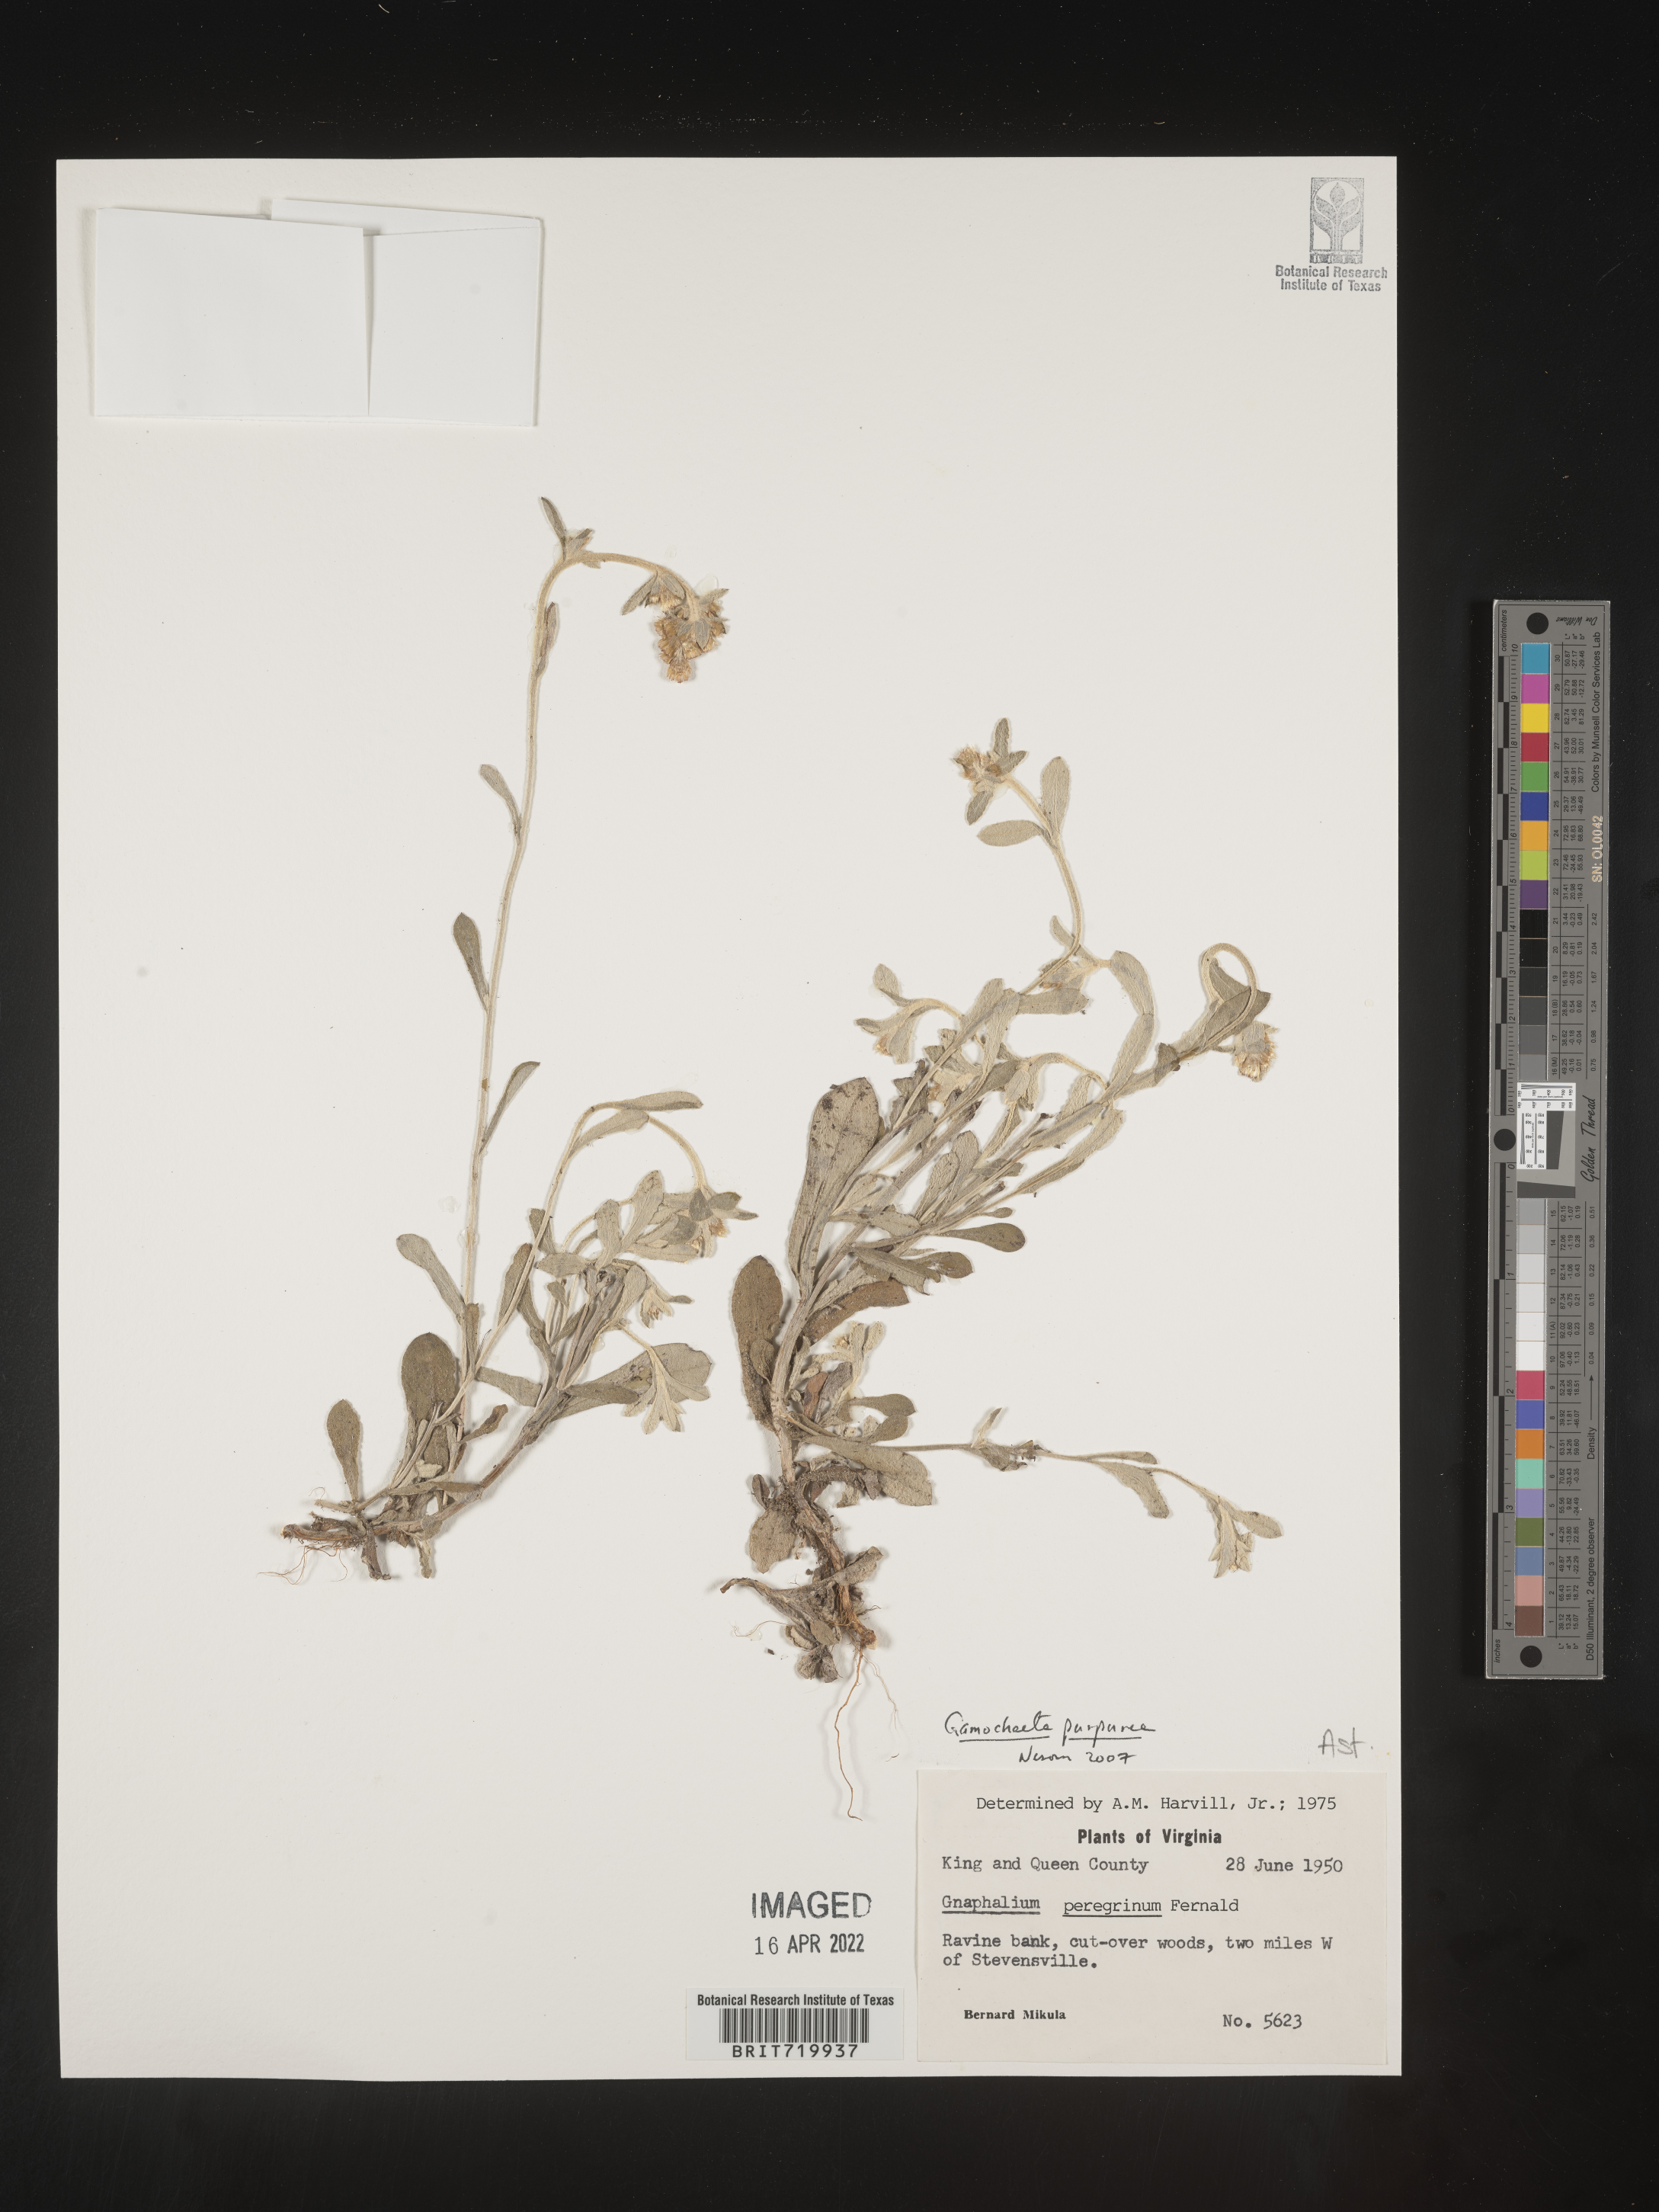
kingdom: Plantae
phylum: Tracheophyta
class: Magnoliopsida
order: Asterales
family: Asteraceae
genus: Gamochaeta
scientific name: Gamochaeta purpurea
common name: Purple cudweed
